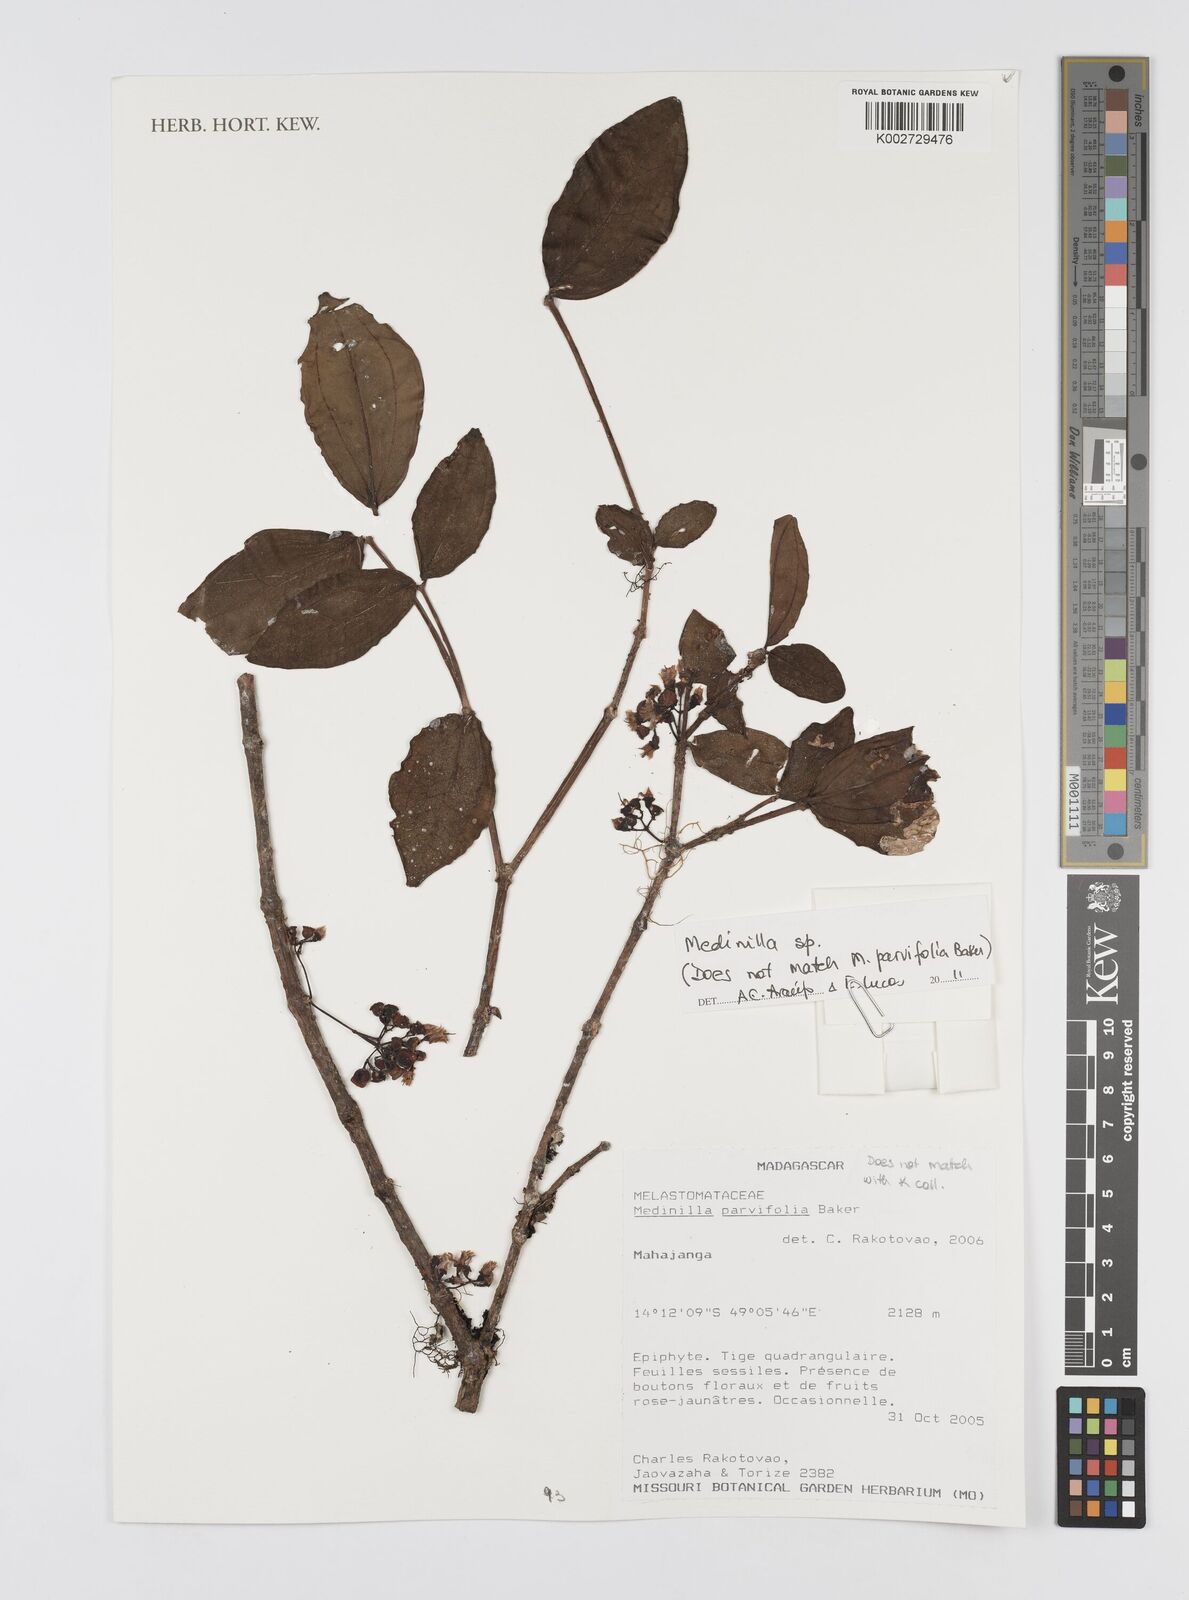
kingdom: Plantae
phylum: Tracheophyta
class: Magnoliopsida
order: Myrtales
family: Melastomataceae
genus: Medinilla
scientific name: Medinilla
